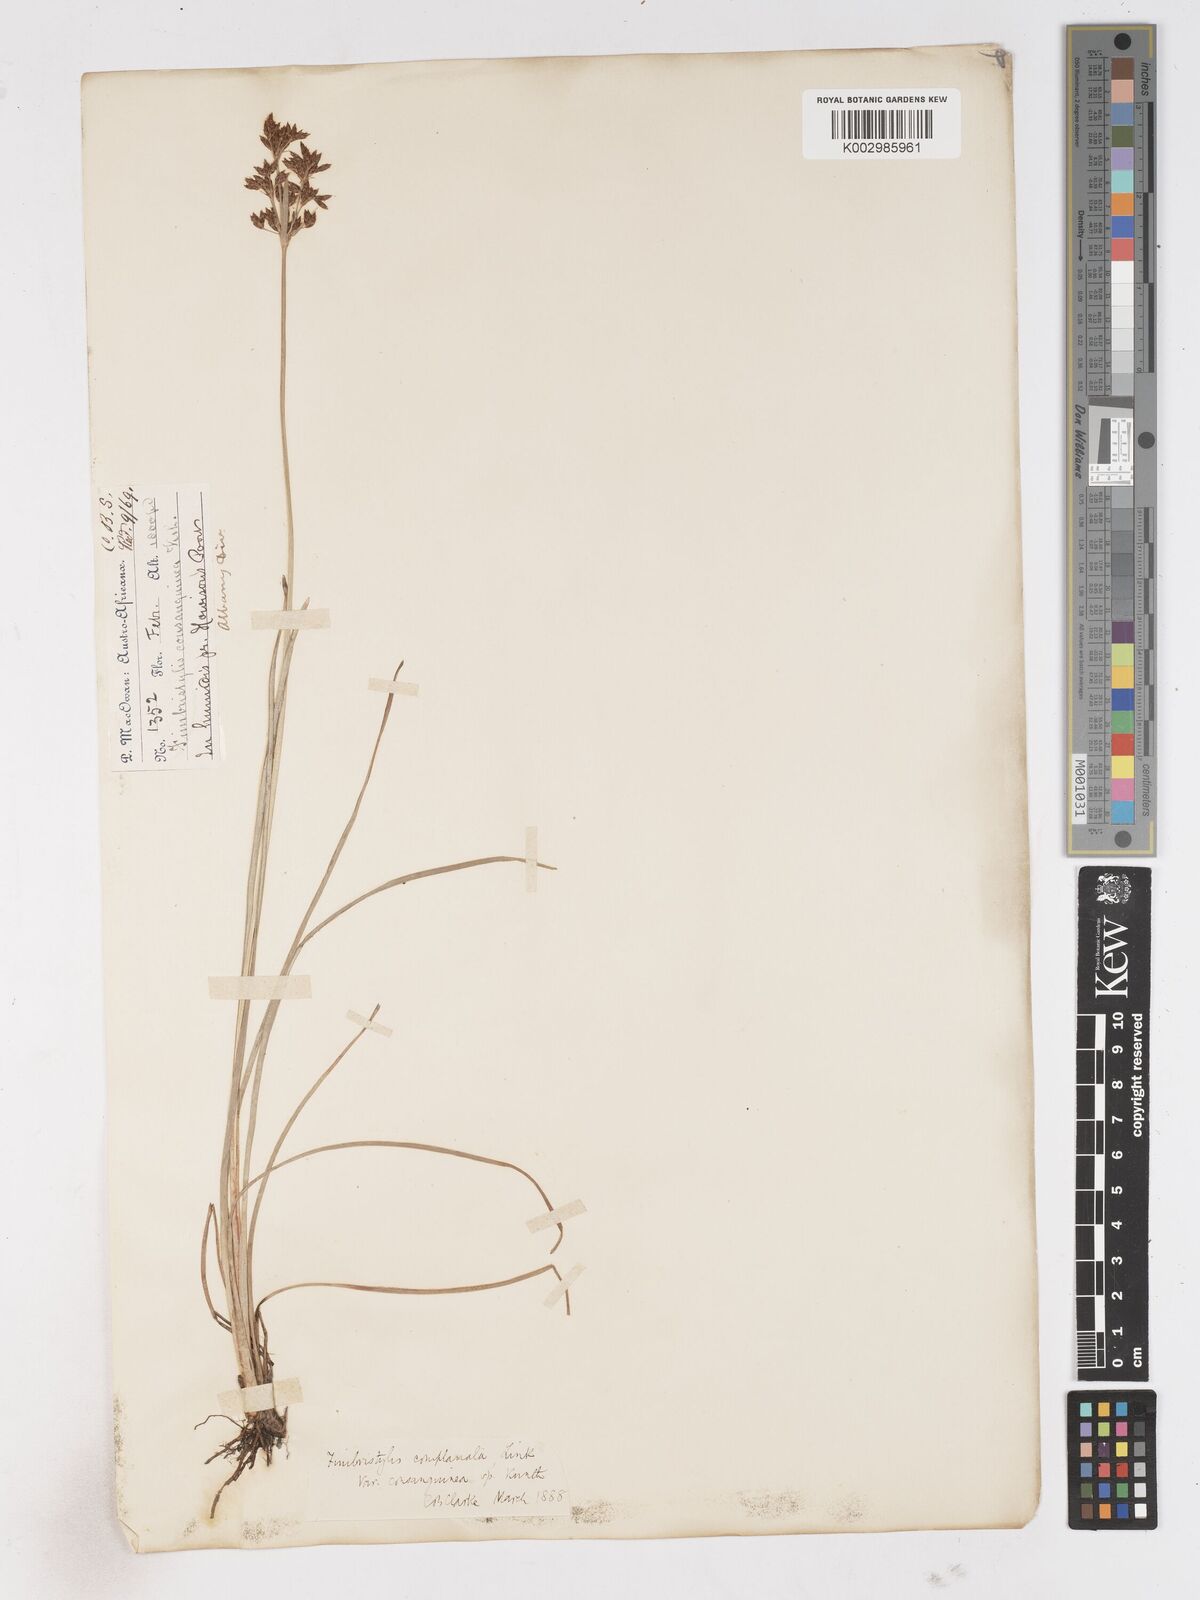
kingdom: Plantae
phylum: Tracheophyta
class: Liliopsida
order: Poales
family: Cyperaceae
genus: Fimbristylis
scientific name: Fimbristylis complanata
